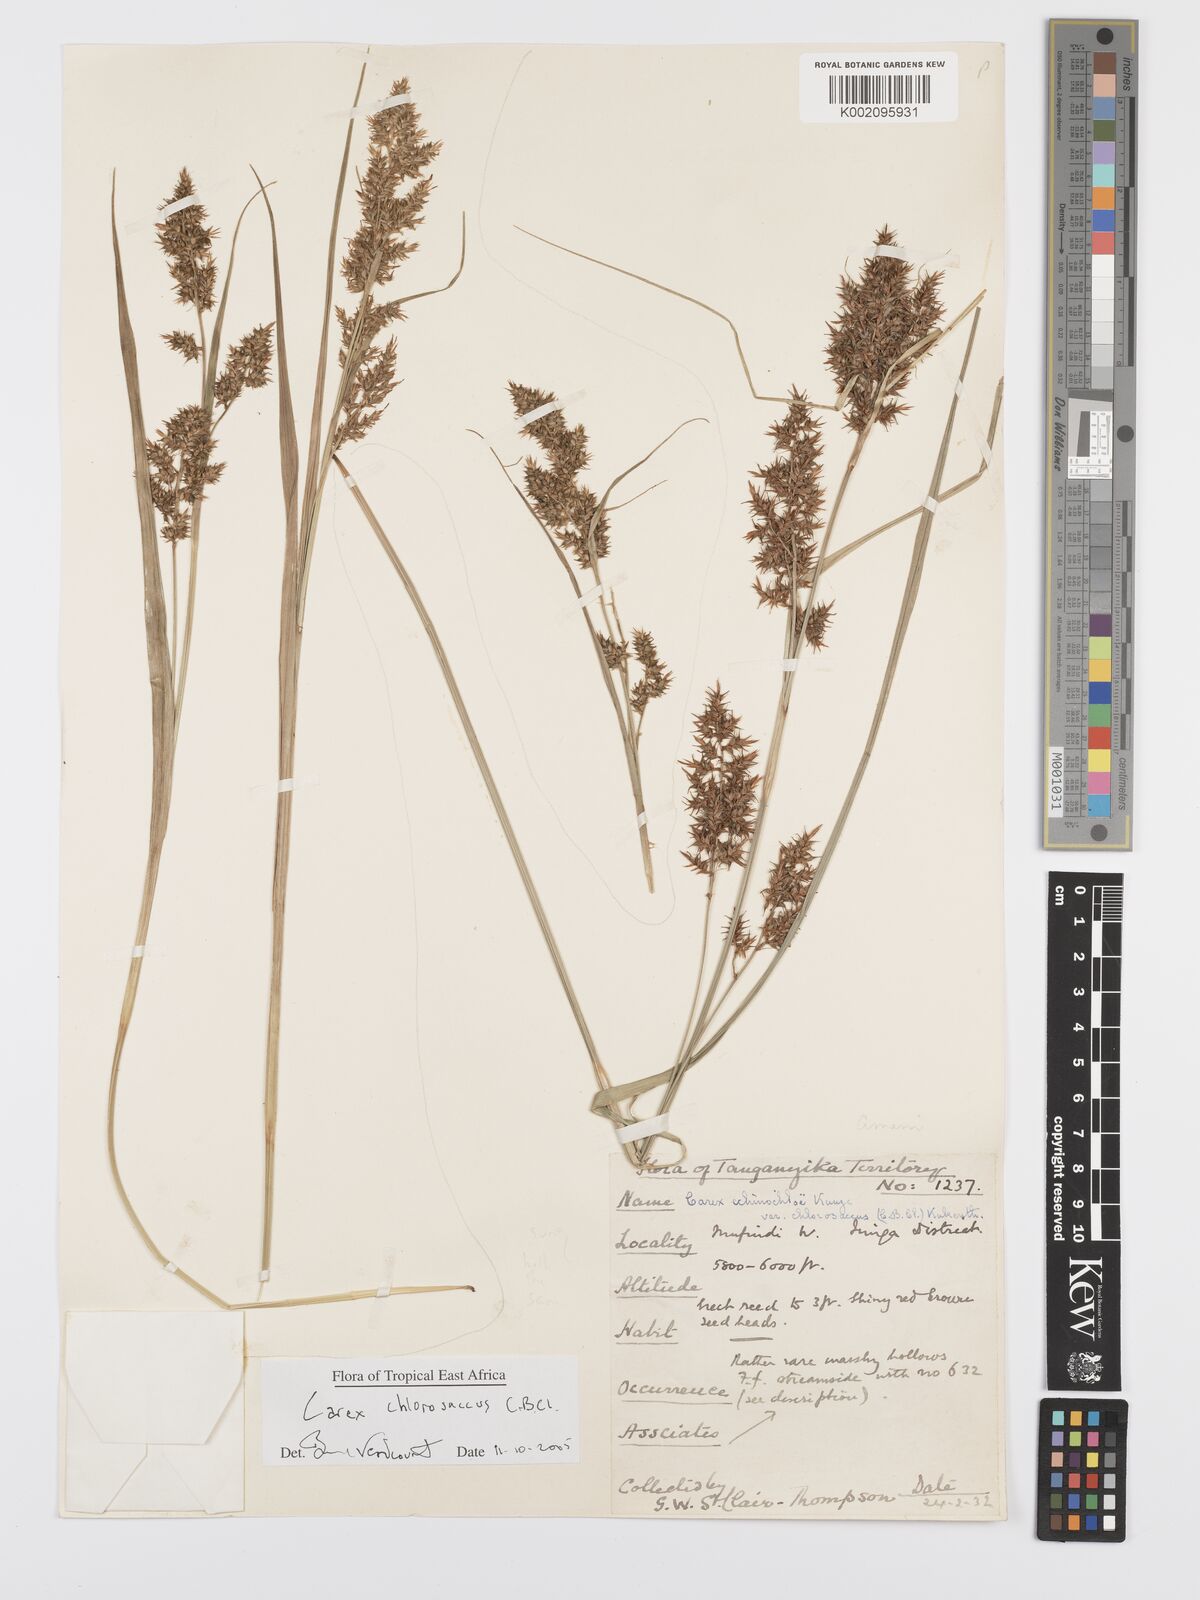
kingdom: Plantae
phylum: Tracheophyta
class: Liliopsida
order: Poales
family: Cyperaceae
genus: Carex
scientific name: Carex chlorosaccus
